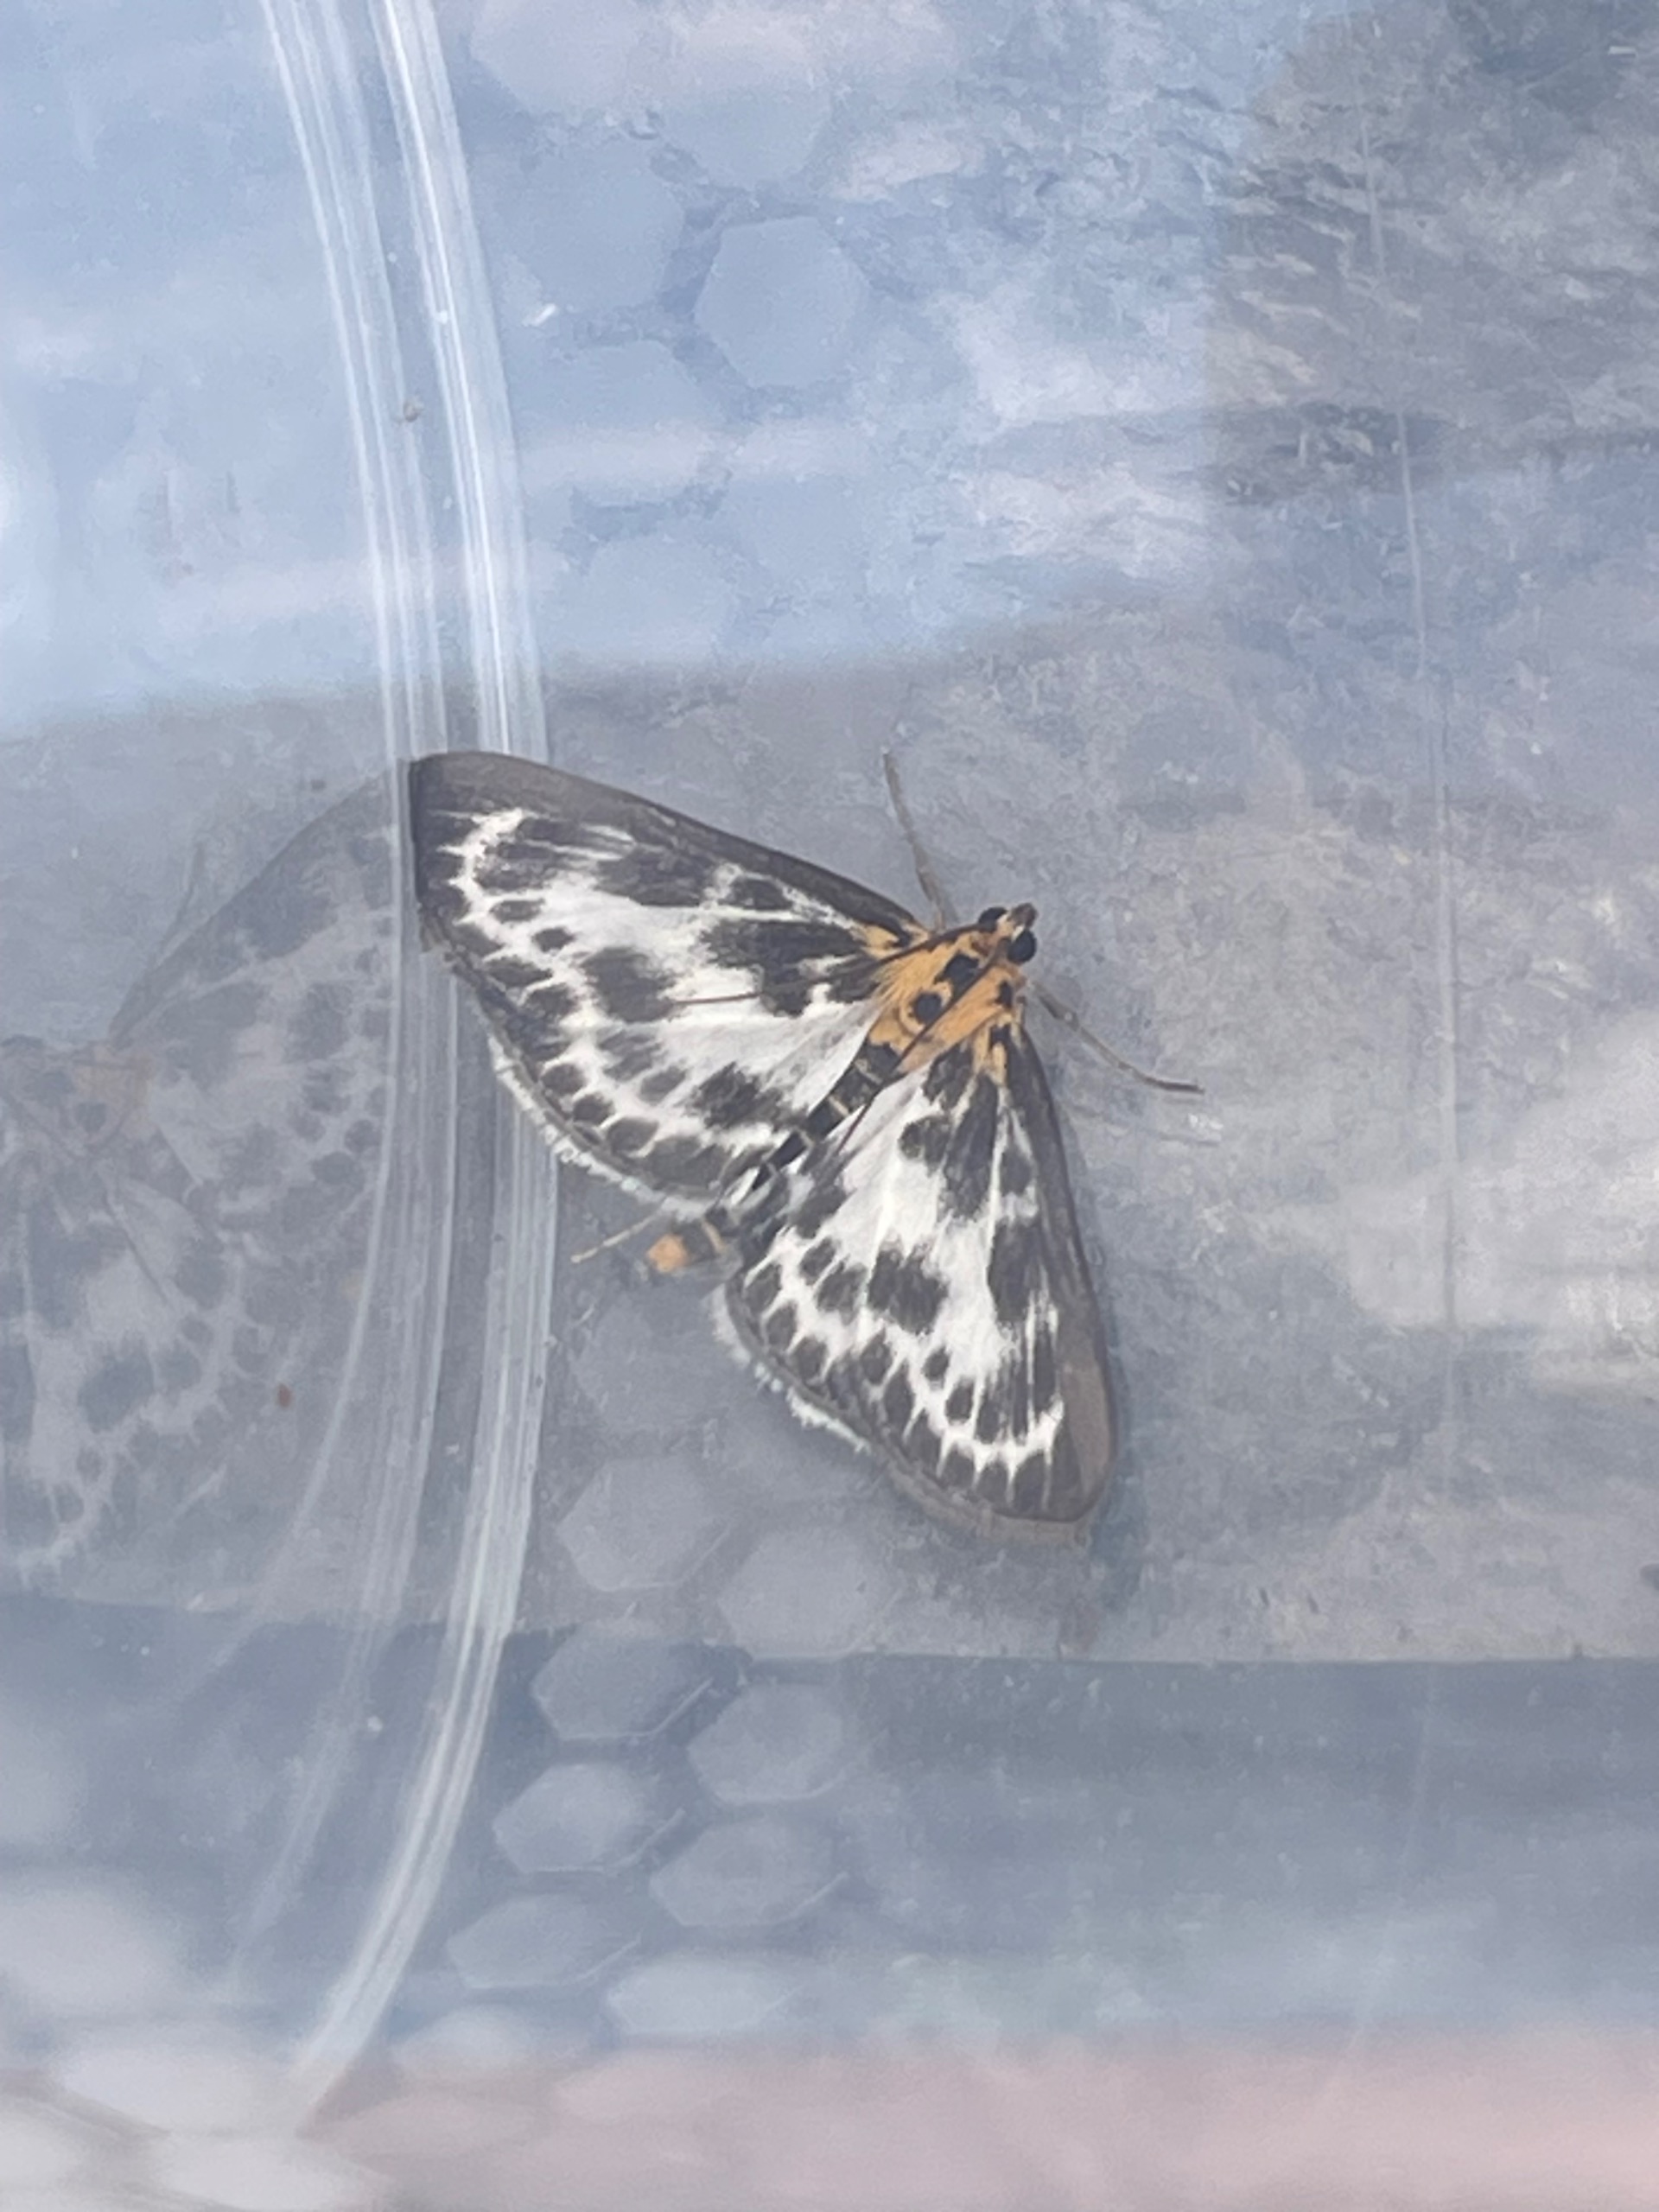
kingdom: Animalia
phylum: Arthropoda
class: Insecta
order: Lepidoptera
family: Crambidae
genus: Anania
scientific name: Anania hortulata
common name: Nældehalvmøl
